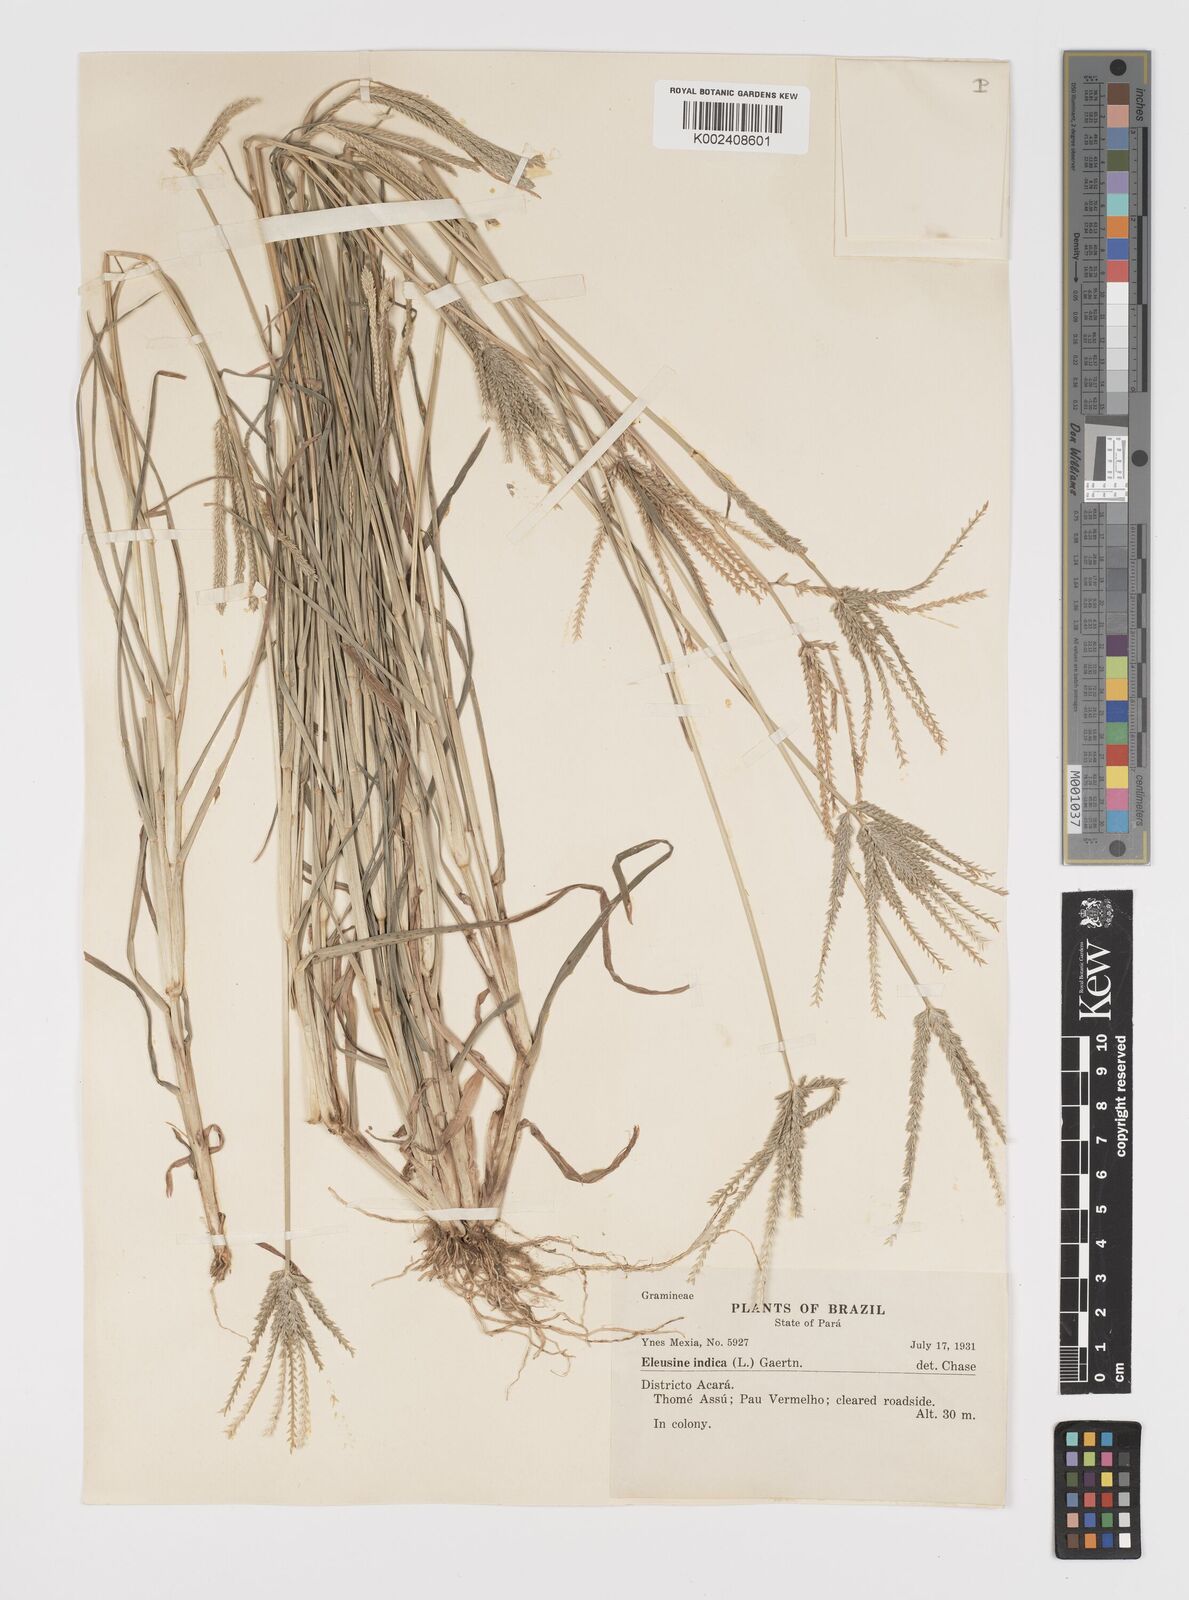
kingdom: Plantae
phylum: Tracheophyta
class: Liliopsida
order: Poales
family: Poaceae
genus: Eleusine
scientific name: Eleusine indica
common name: Yard-grass
